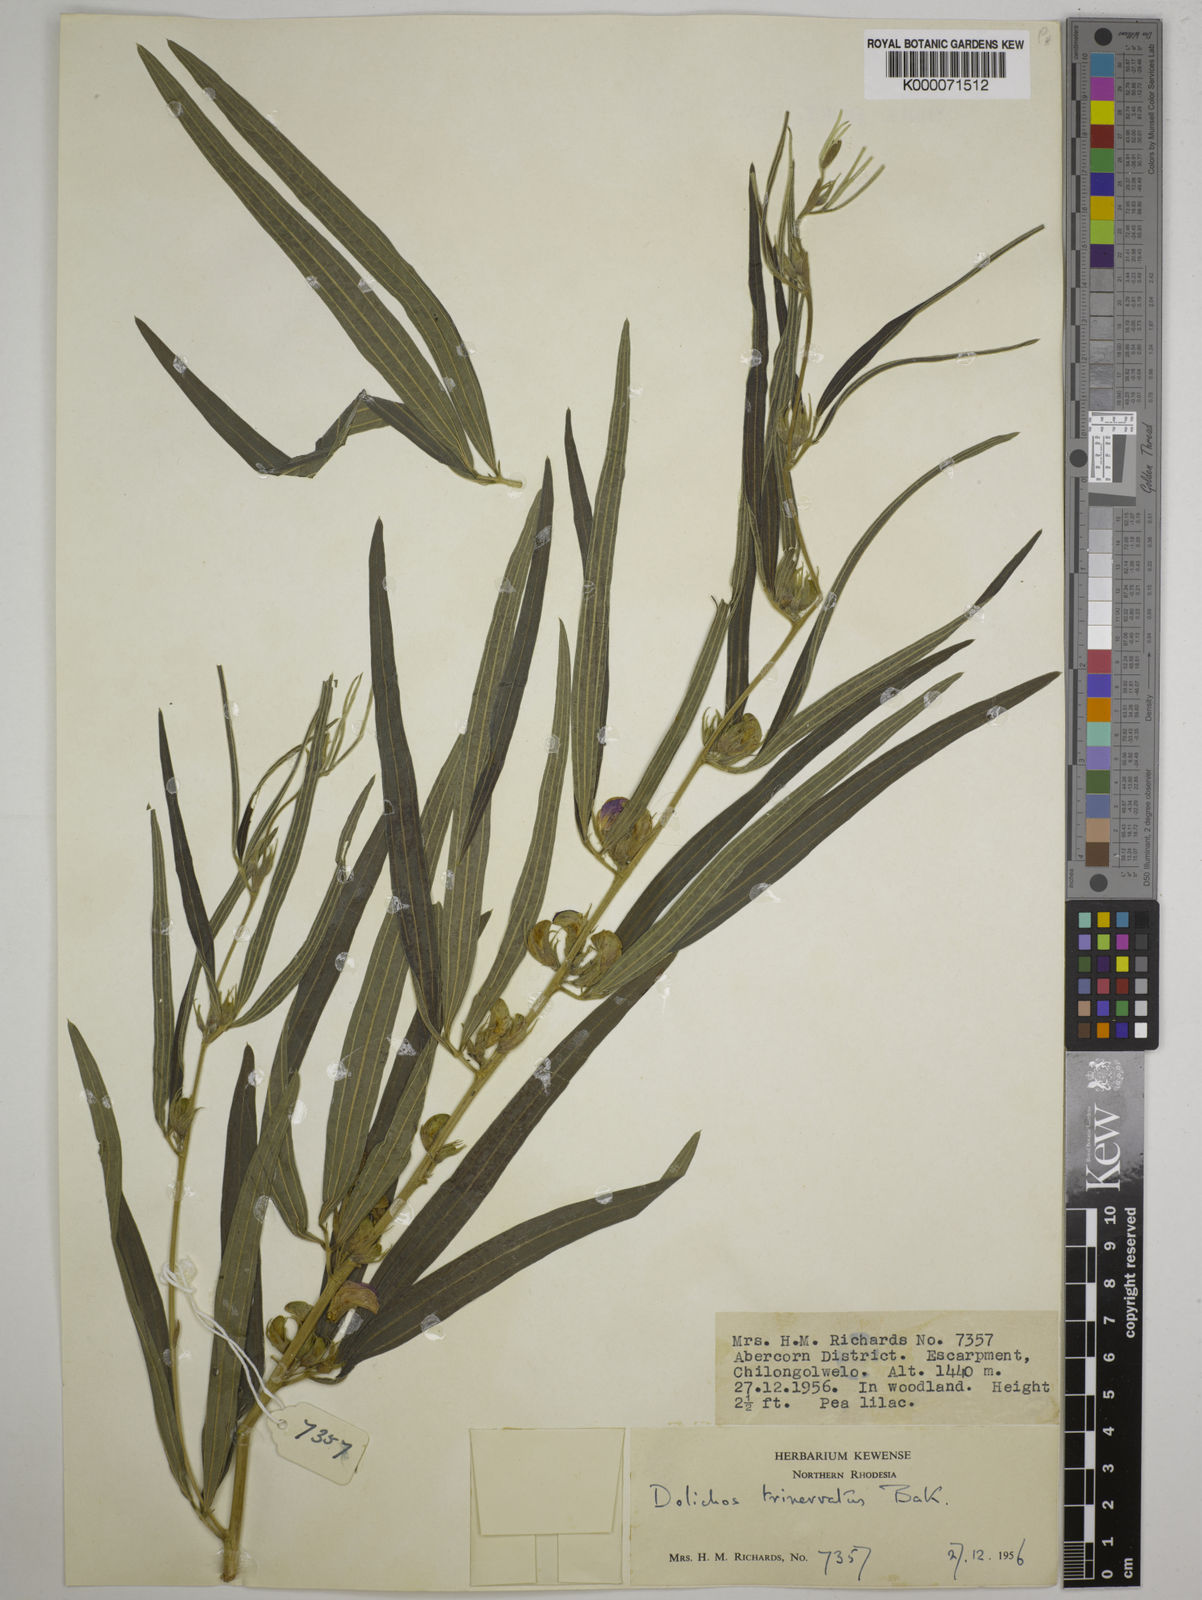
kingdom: Plantae
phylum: Tracheophyta
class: Magnoliopsida
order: Fabales
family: Fabaceae
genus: Dolichos
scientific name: Dolichos trinervatus
